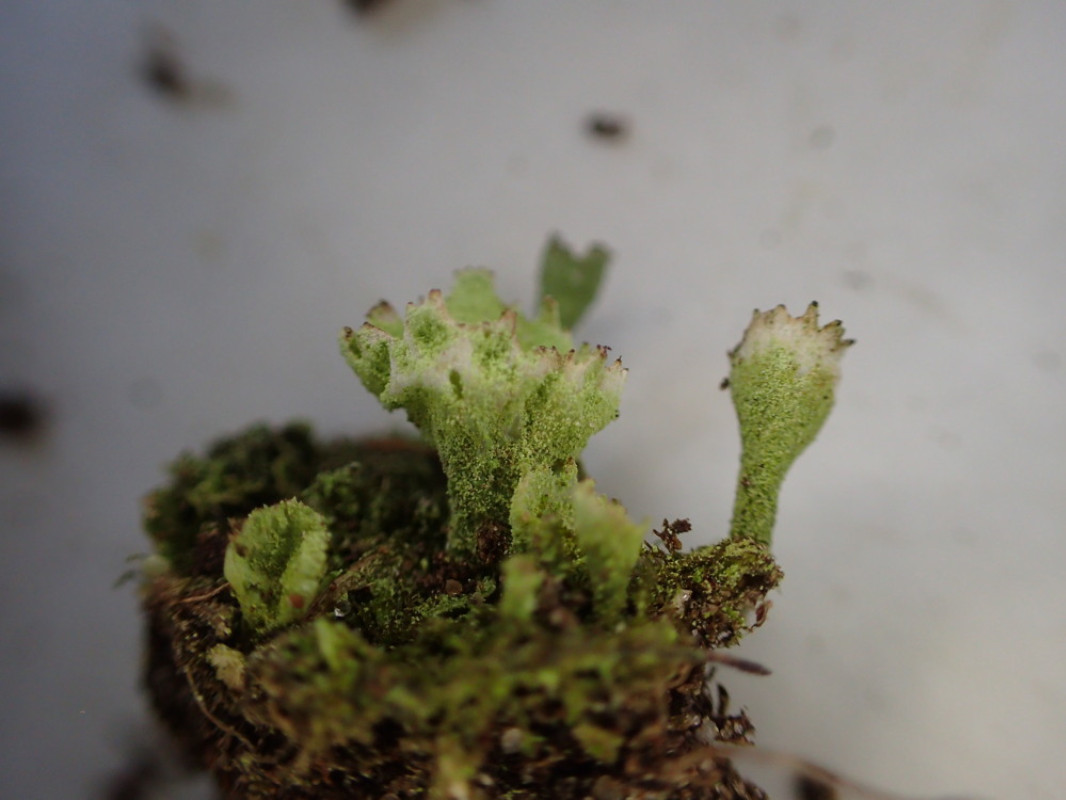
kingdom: Fungi
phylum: Ascomycota
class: Lecanoromycetes
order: Lecanorales
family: Cladoniaceae
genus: Cladonia
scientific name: Cladonia humilis
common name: lav bægerlav
